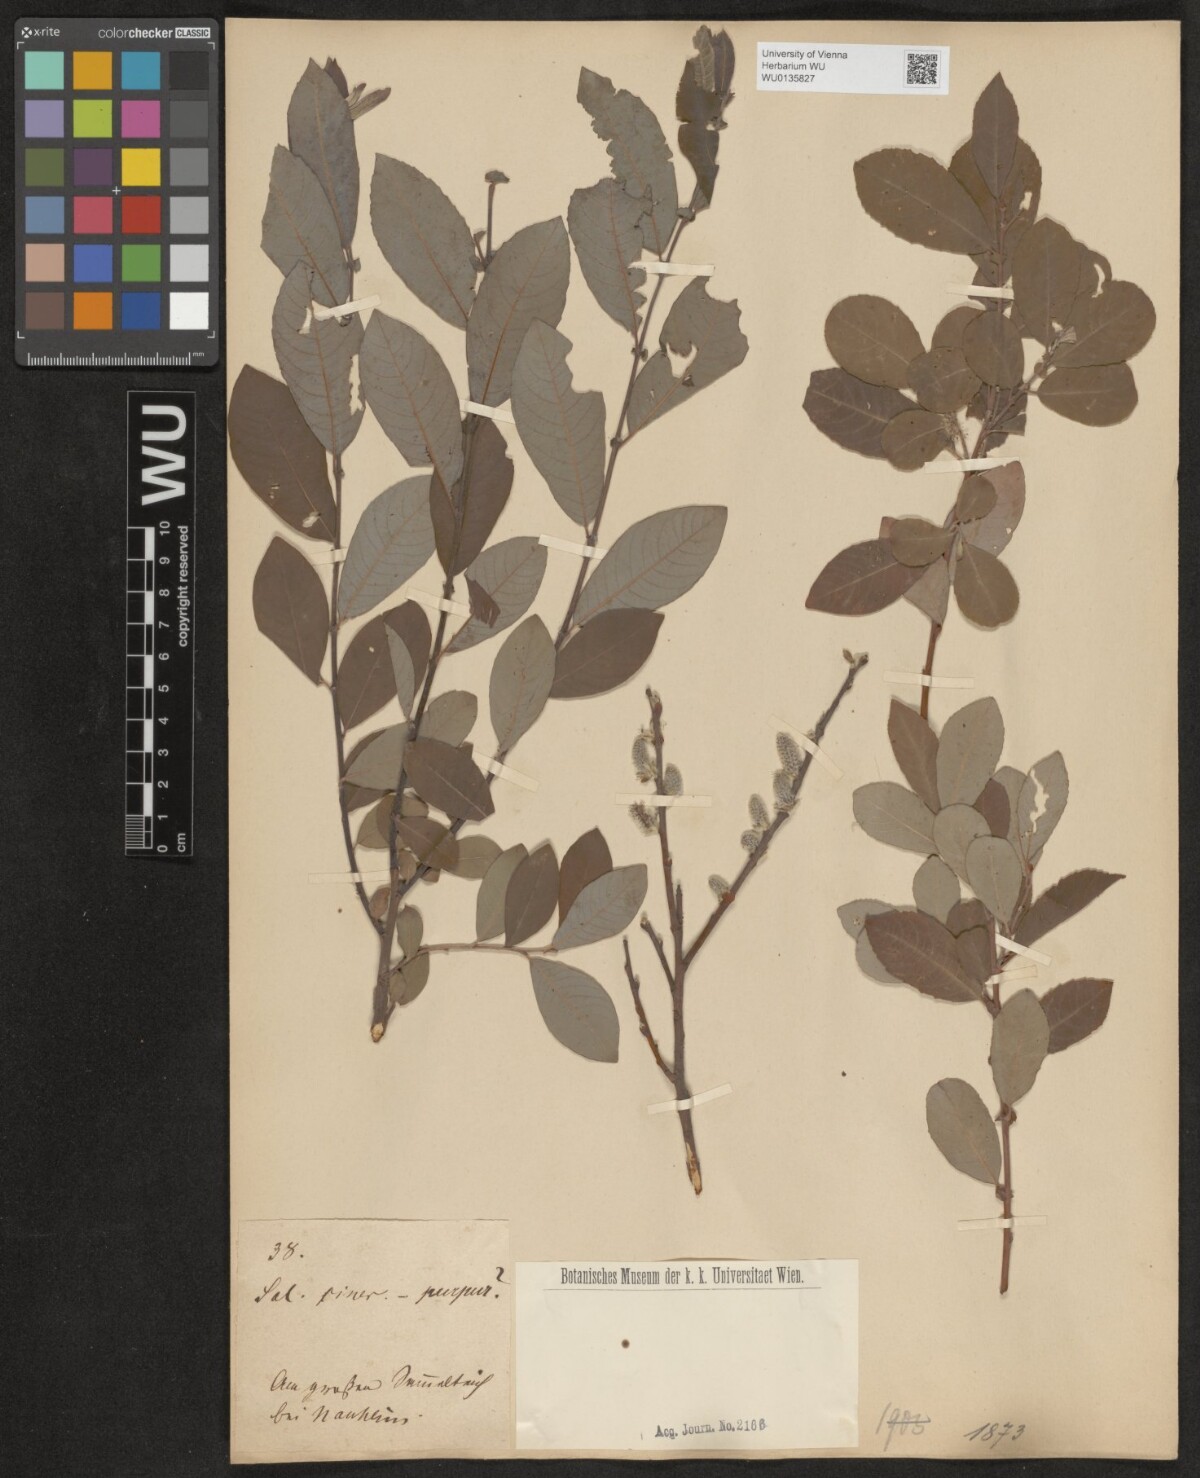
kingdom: Plantae
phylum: Tracheophyta
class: Magnoliopsida
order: Malpighiales
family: Salicaceae
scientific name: Salicaceae
